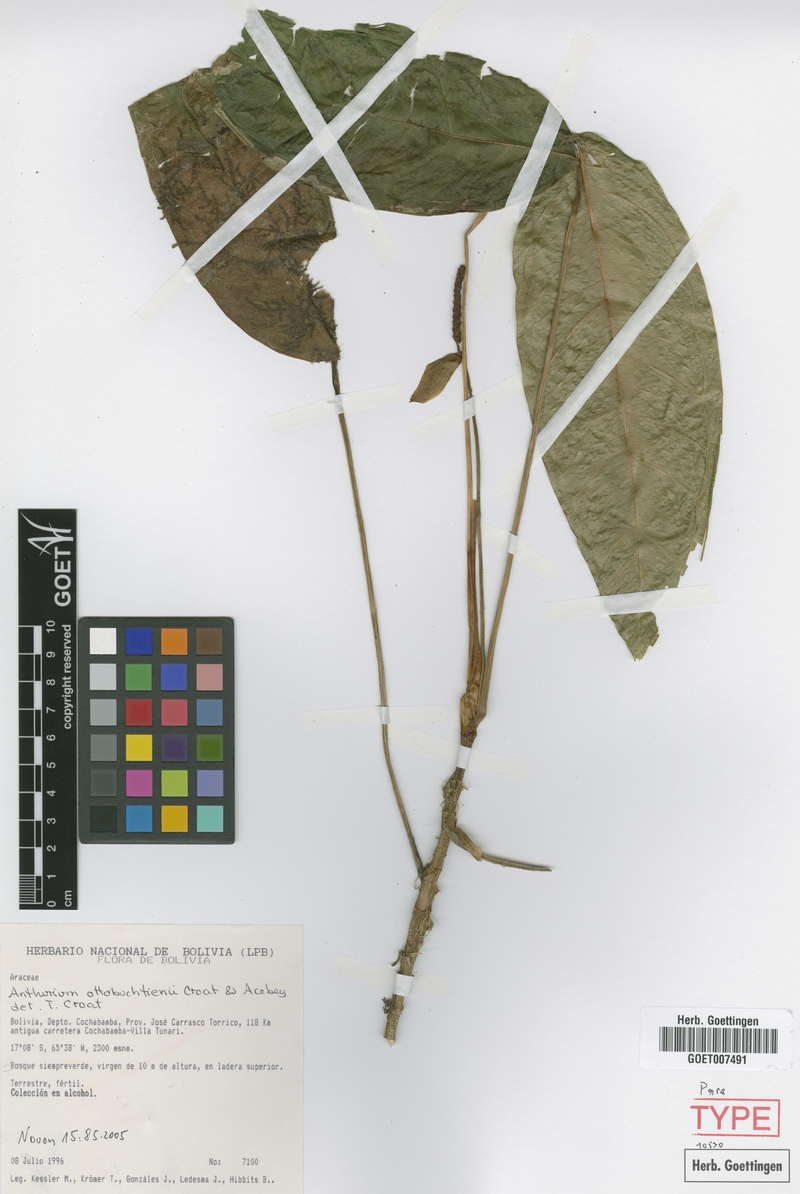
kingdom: Plantae
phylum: Tracheophyta
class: Liliopsida
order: Alismatales
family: Araceae
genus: Anthurium
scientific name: Anthurium ottobuchtienii
